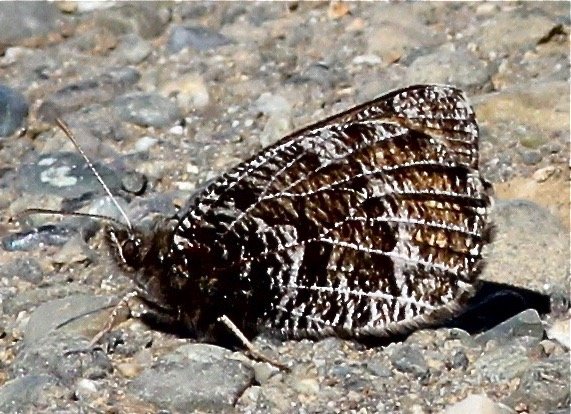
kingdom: Animalia
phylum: Arthropoda
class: Insecta
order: Lepidoptera
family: Nymphalidae
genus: Oeneis
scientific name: Oeneis chryxus
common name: Chryxus Arctic
